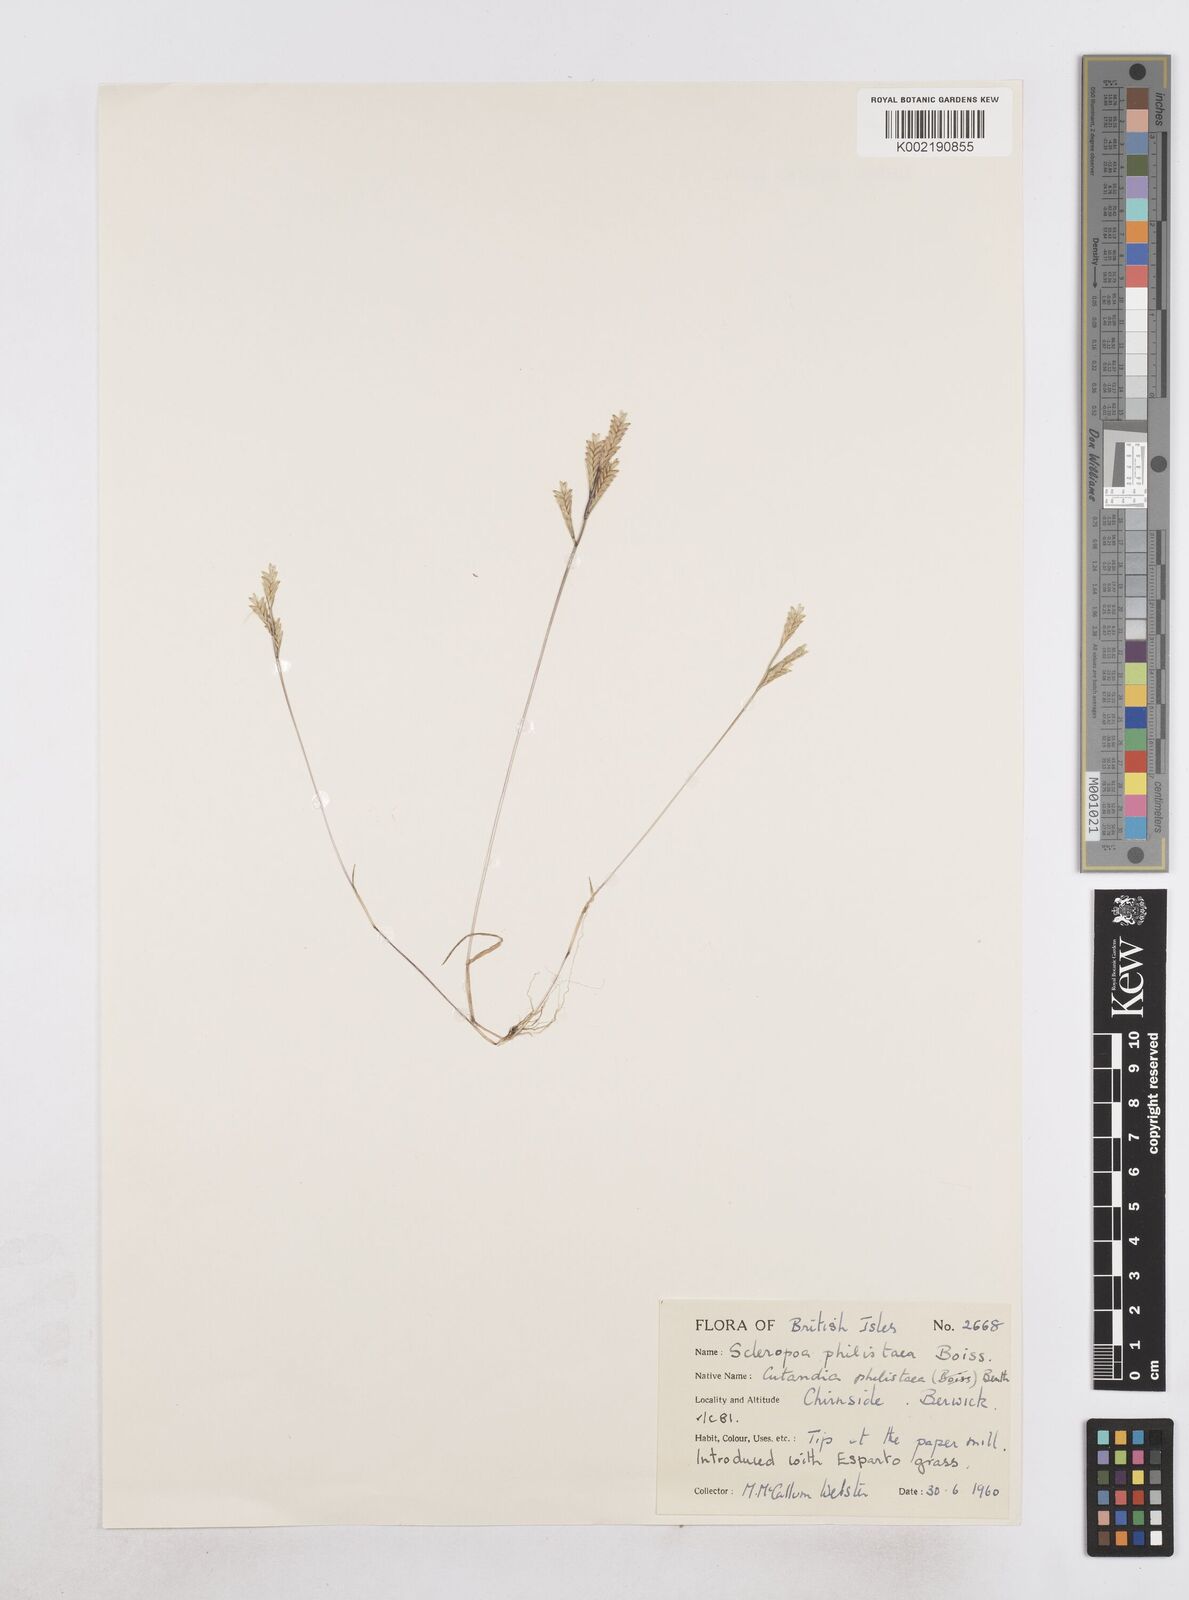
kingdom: Plantae
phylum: Tracheophyta
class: Liliopsida
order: Poales
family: Poaceae
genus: Desmazeria
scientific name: Desmazeria philistaea
